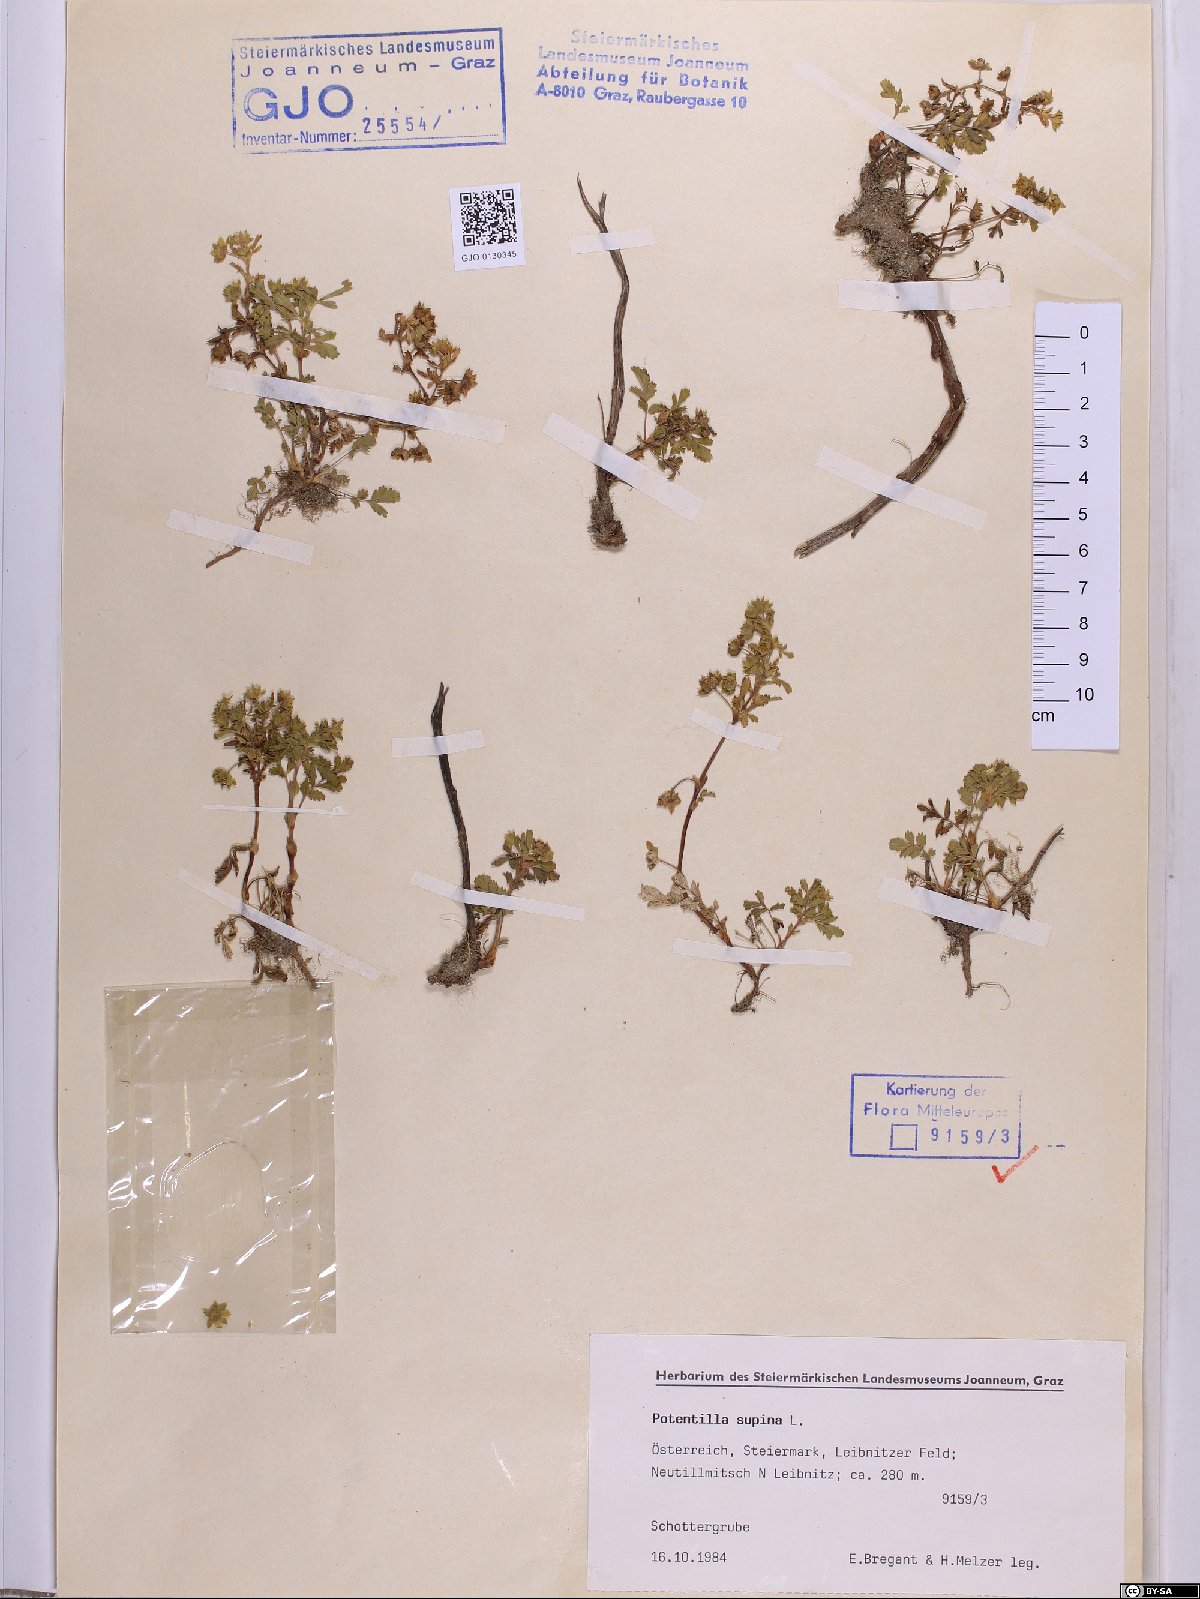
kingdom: Plantae
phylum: Tracheophyta
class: Magnoliopsida
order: Rosales
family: Rosaceae
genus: Potentilla
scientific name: Potentilla supina
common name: Prostrate cinquefoil
